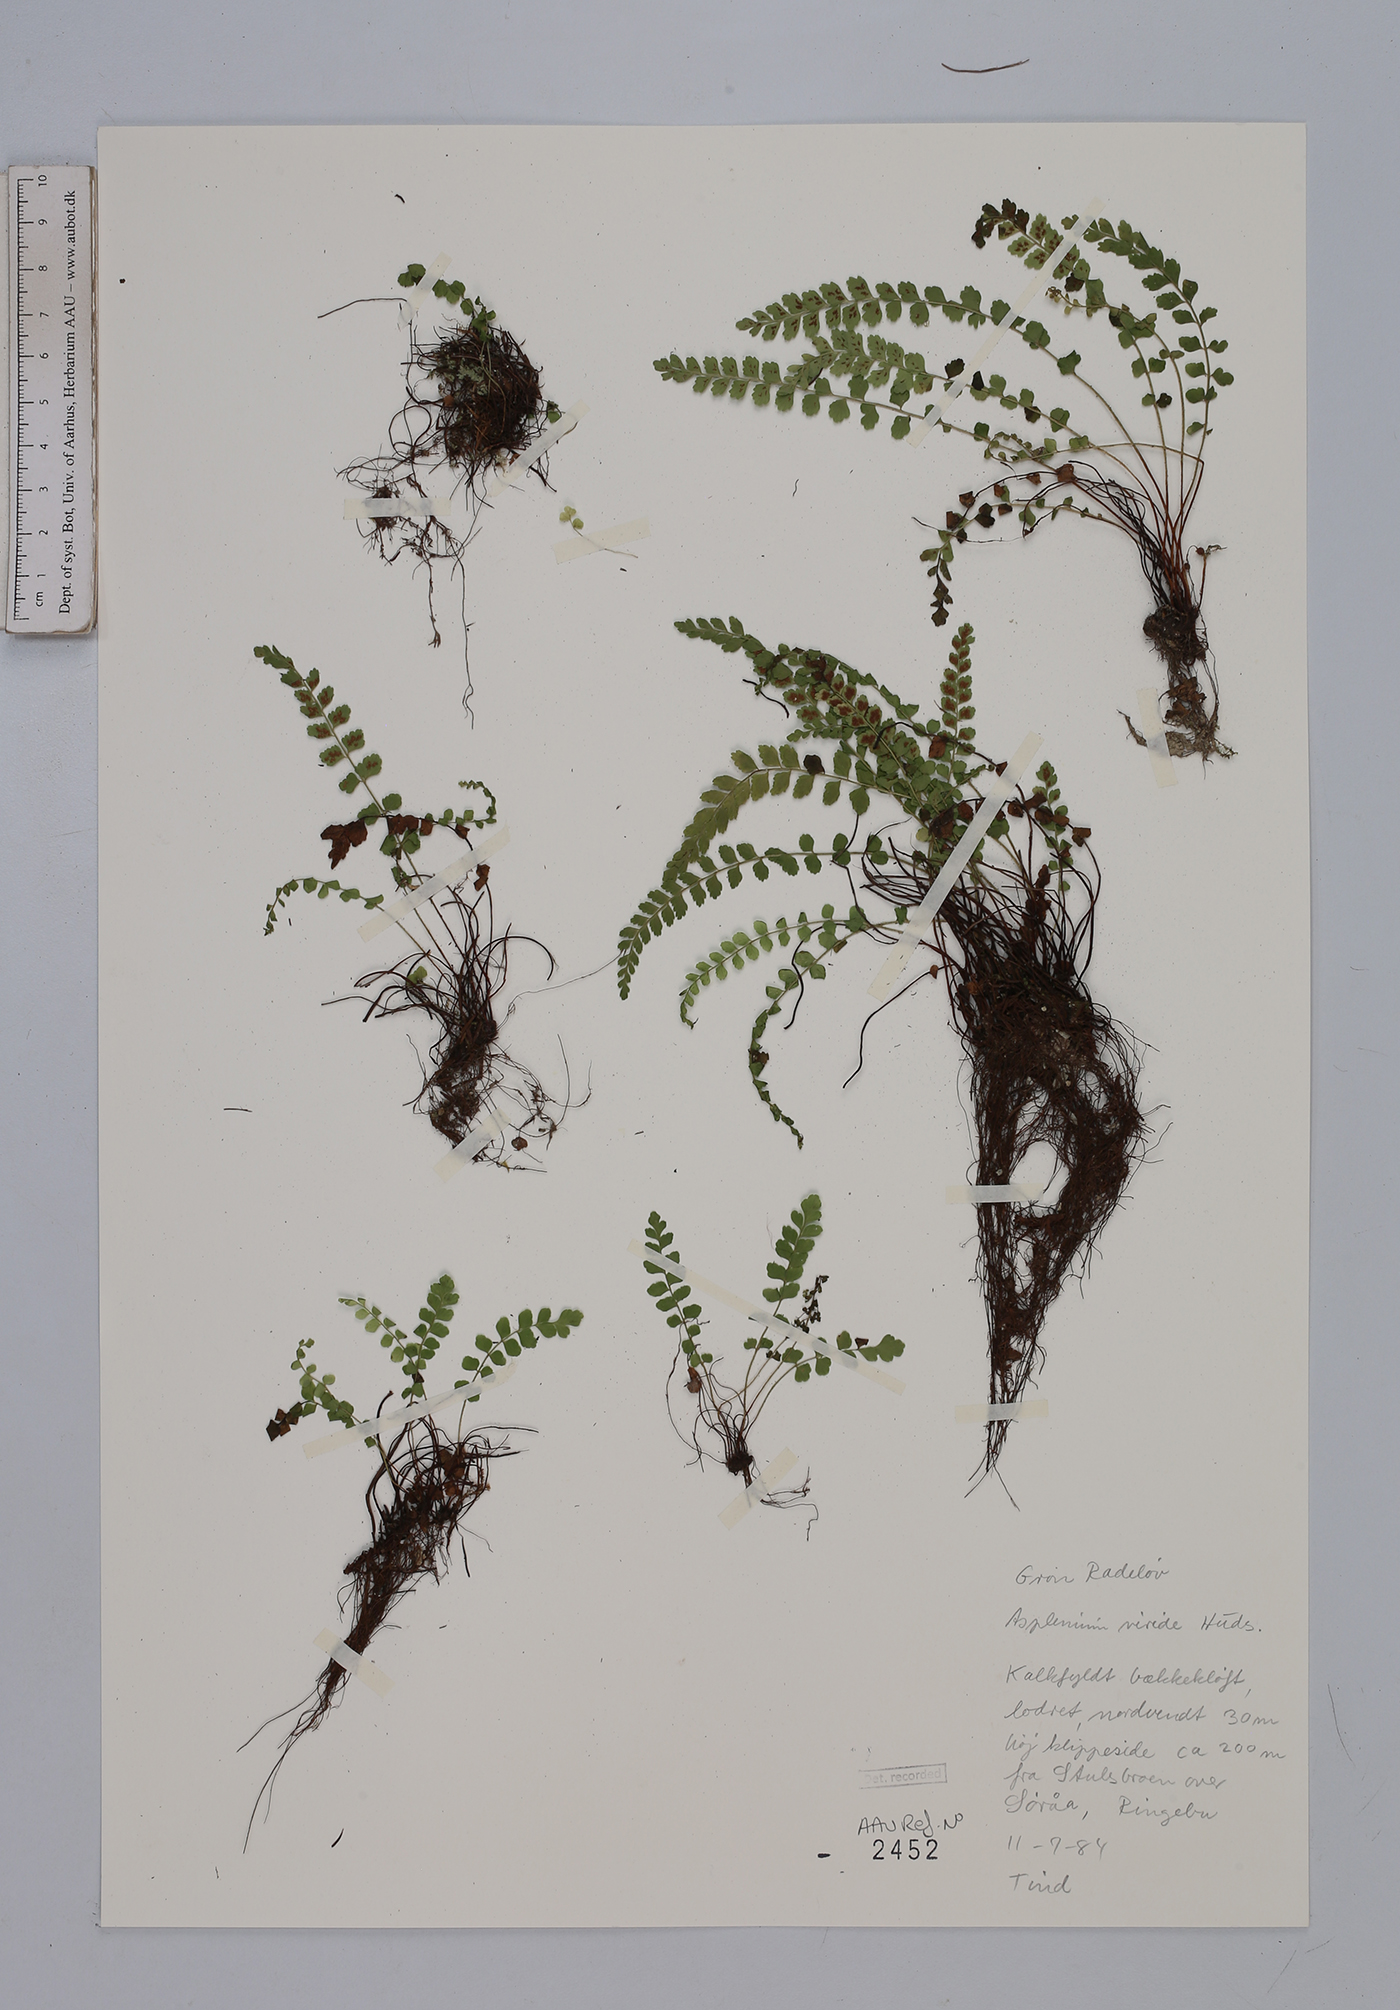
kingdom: Plantae
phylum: Tracheophyta
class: Polypodiopsida
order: Polypodiales
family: Aspleniaceae
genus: Asplenium
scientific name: Asplenium viride
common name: Green spleenwort
